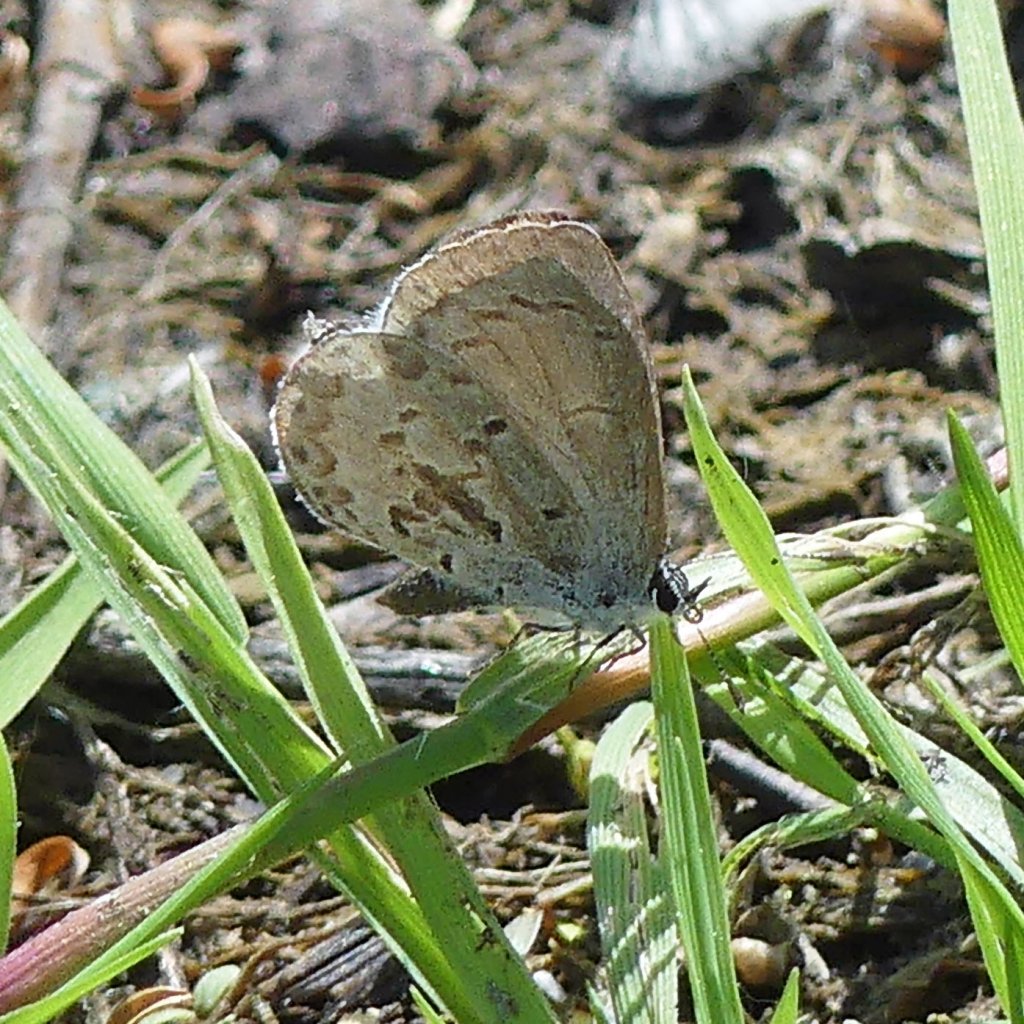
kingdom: Animalia
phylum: Arthropoda
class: Insecta
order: Lepidoptera
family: Lycaenidae
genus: Celastrina
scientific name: Celastrina
